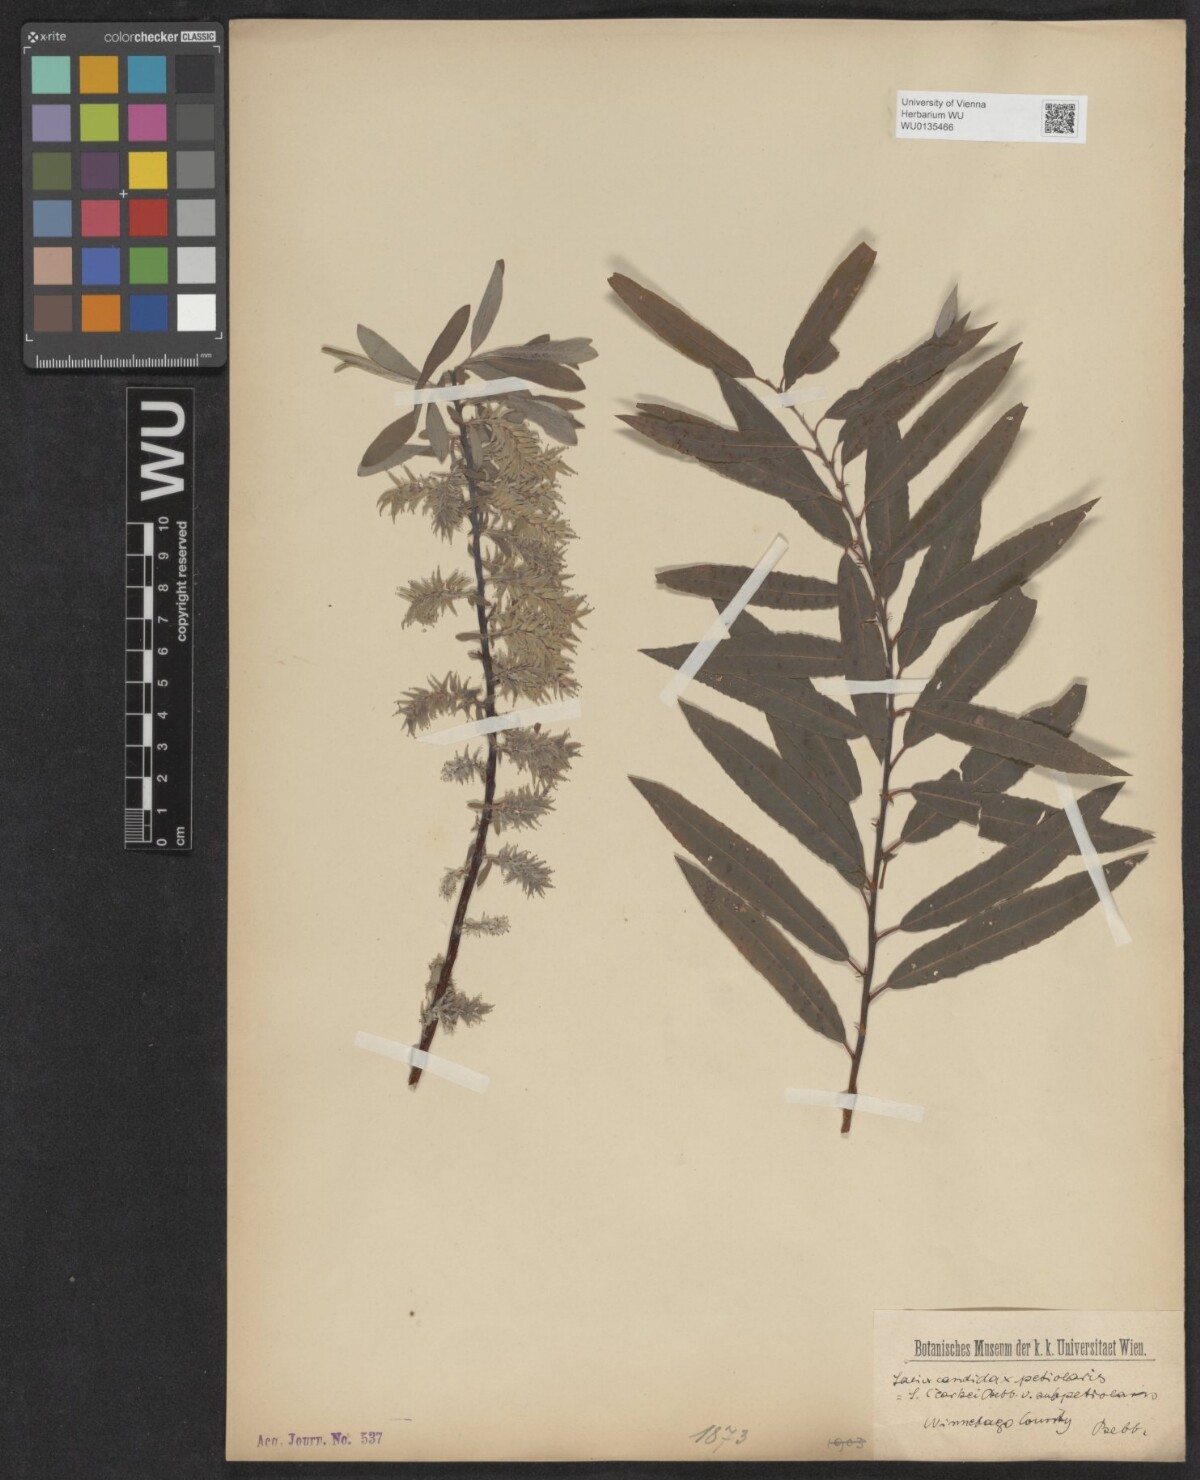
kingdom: Plantae
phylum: Tracheophyta
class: Magnoliopsida
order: Malpighiales
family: Salicaceae
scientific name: Salicaceae
